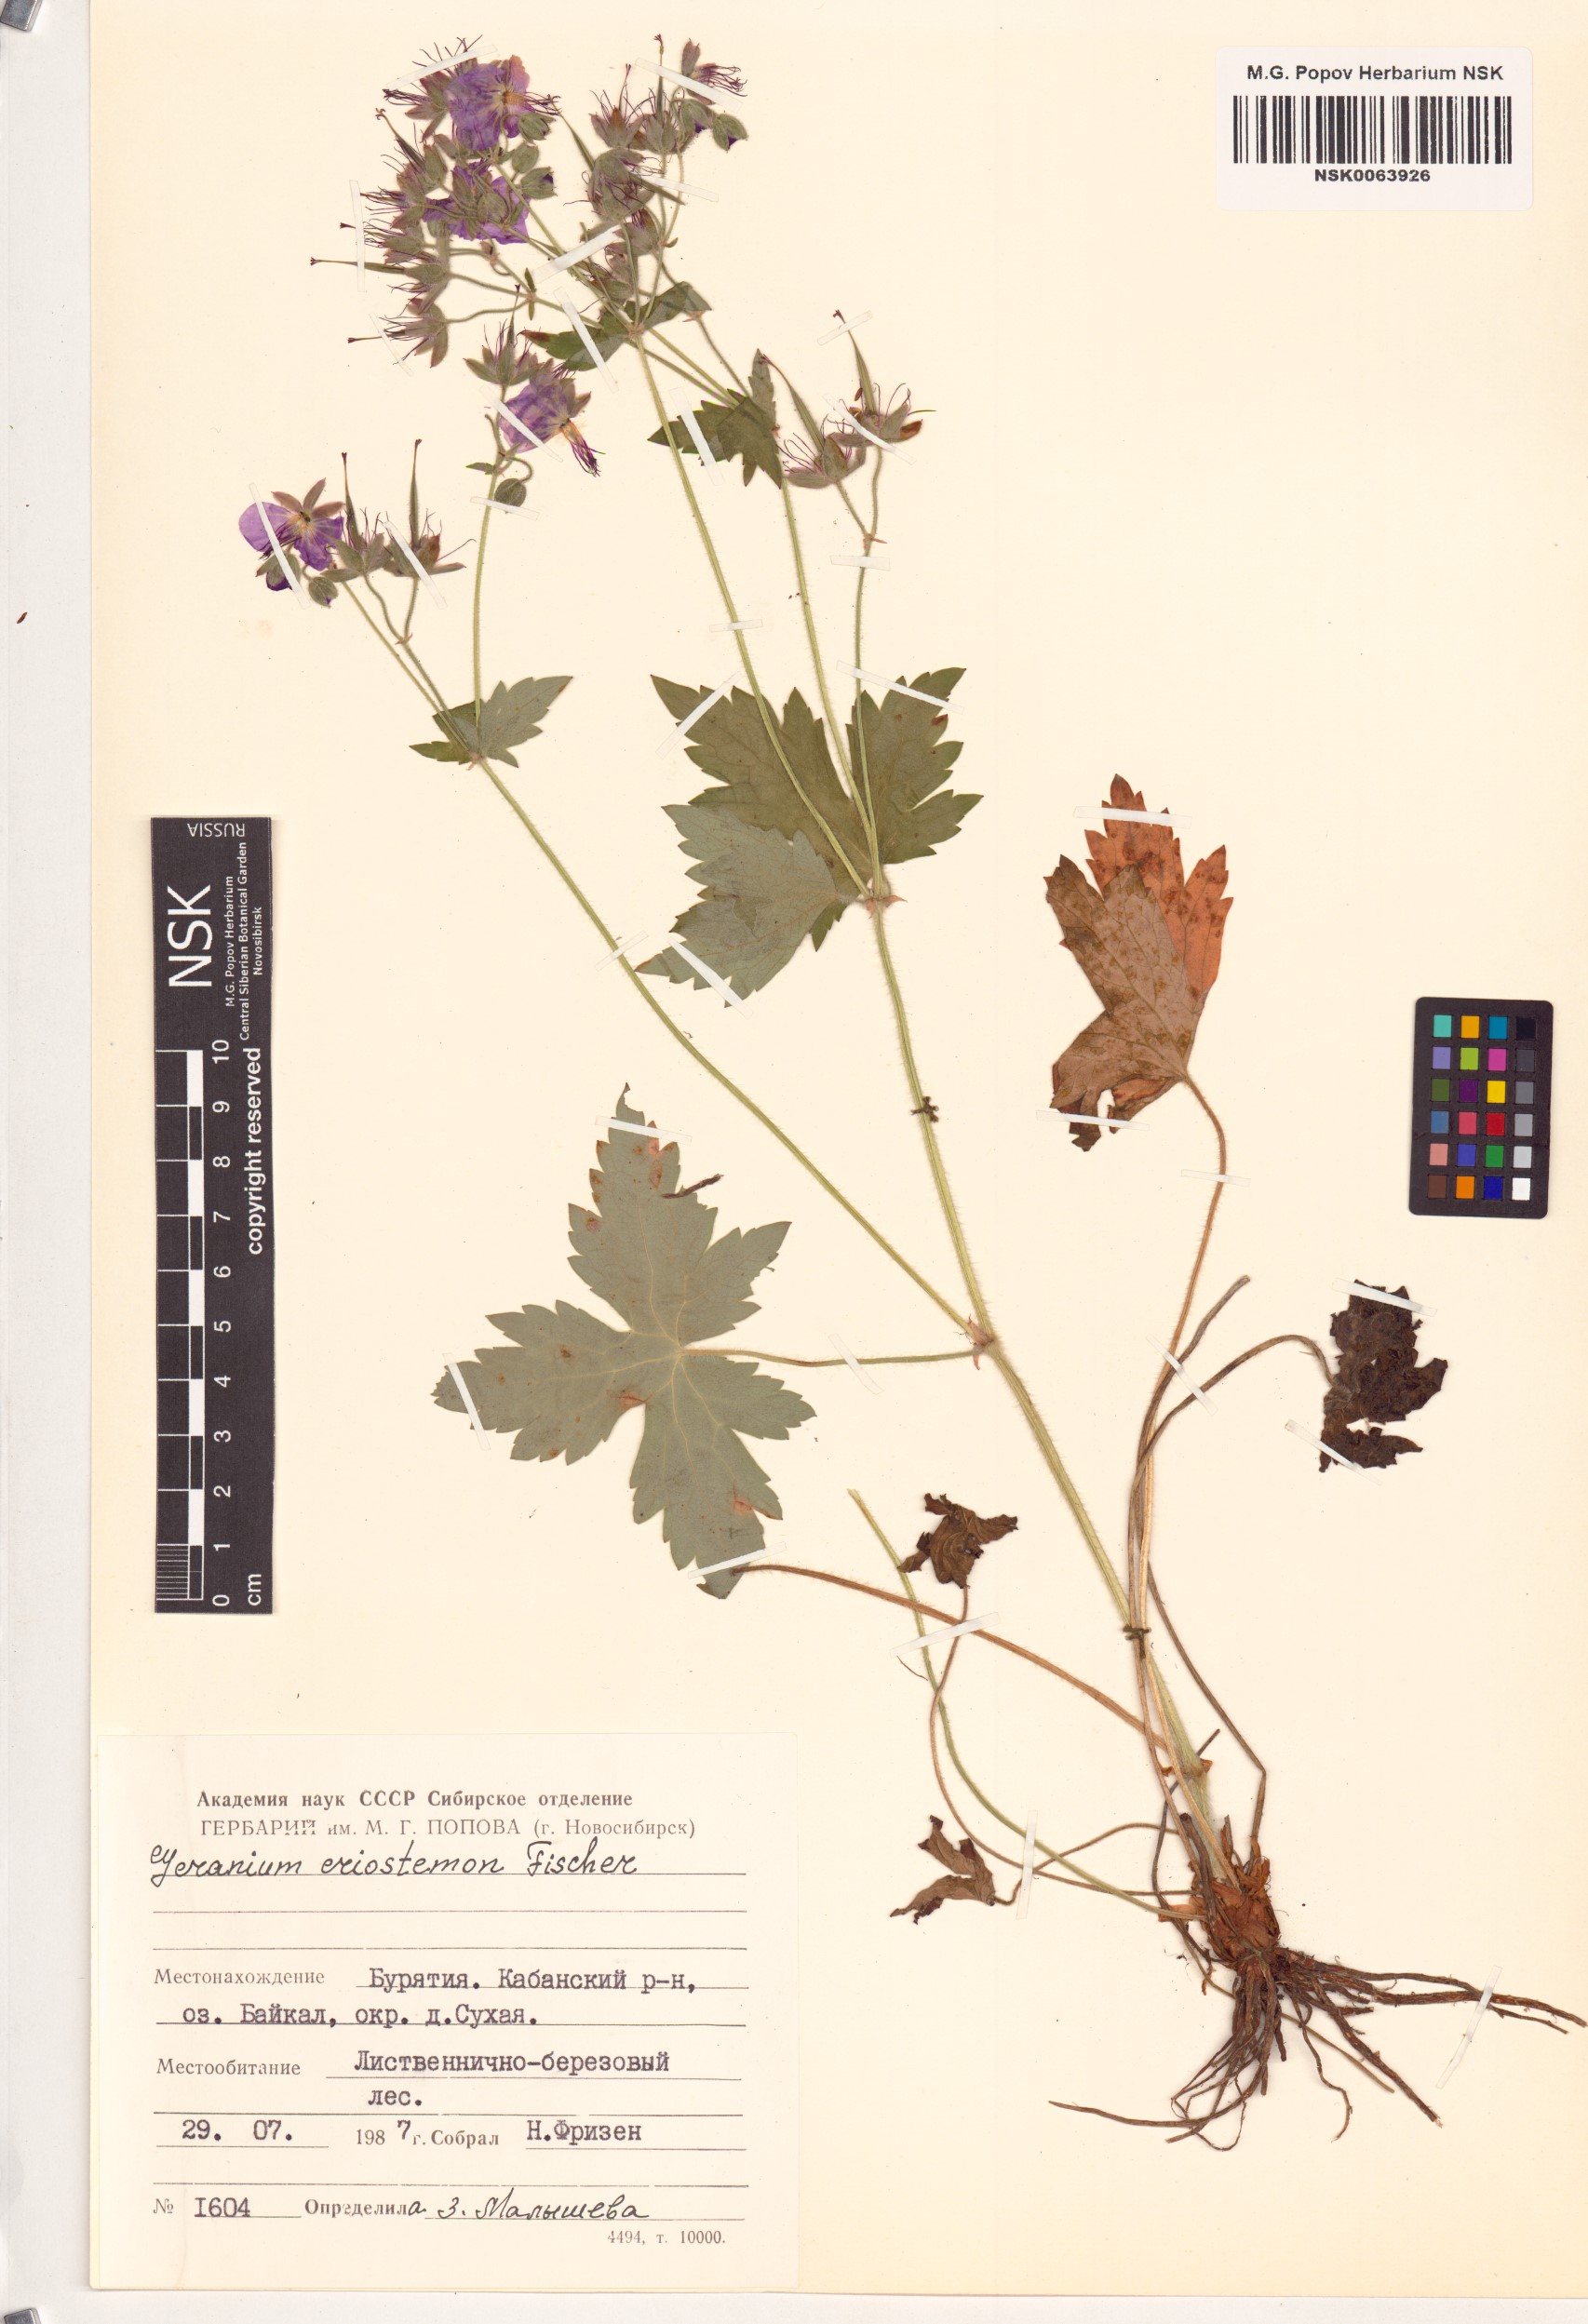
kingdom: Plantae
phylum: Tracheophyta
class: Magnoliopsida
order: Geraniales
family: Geraniaceae
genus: Geranium
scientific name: Geranium platyanthum
